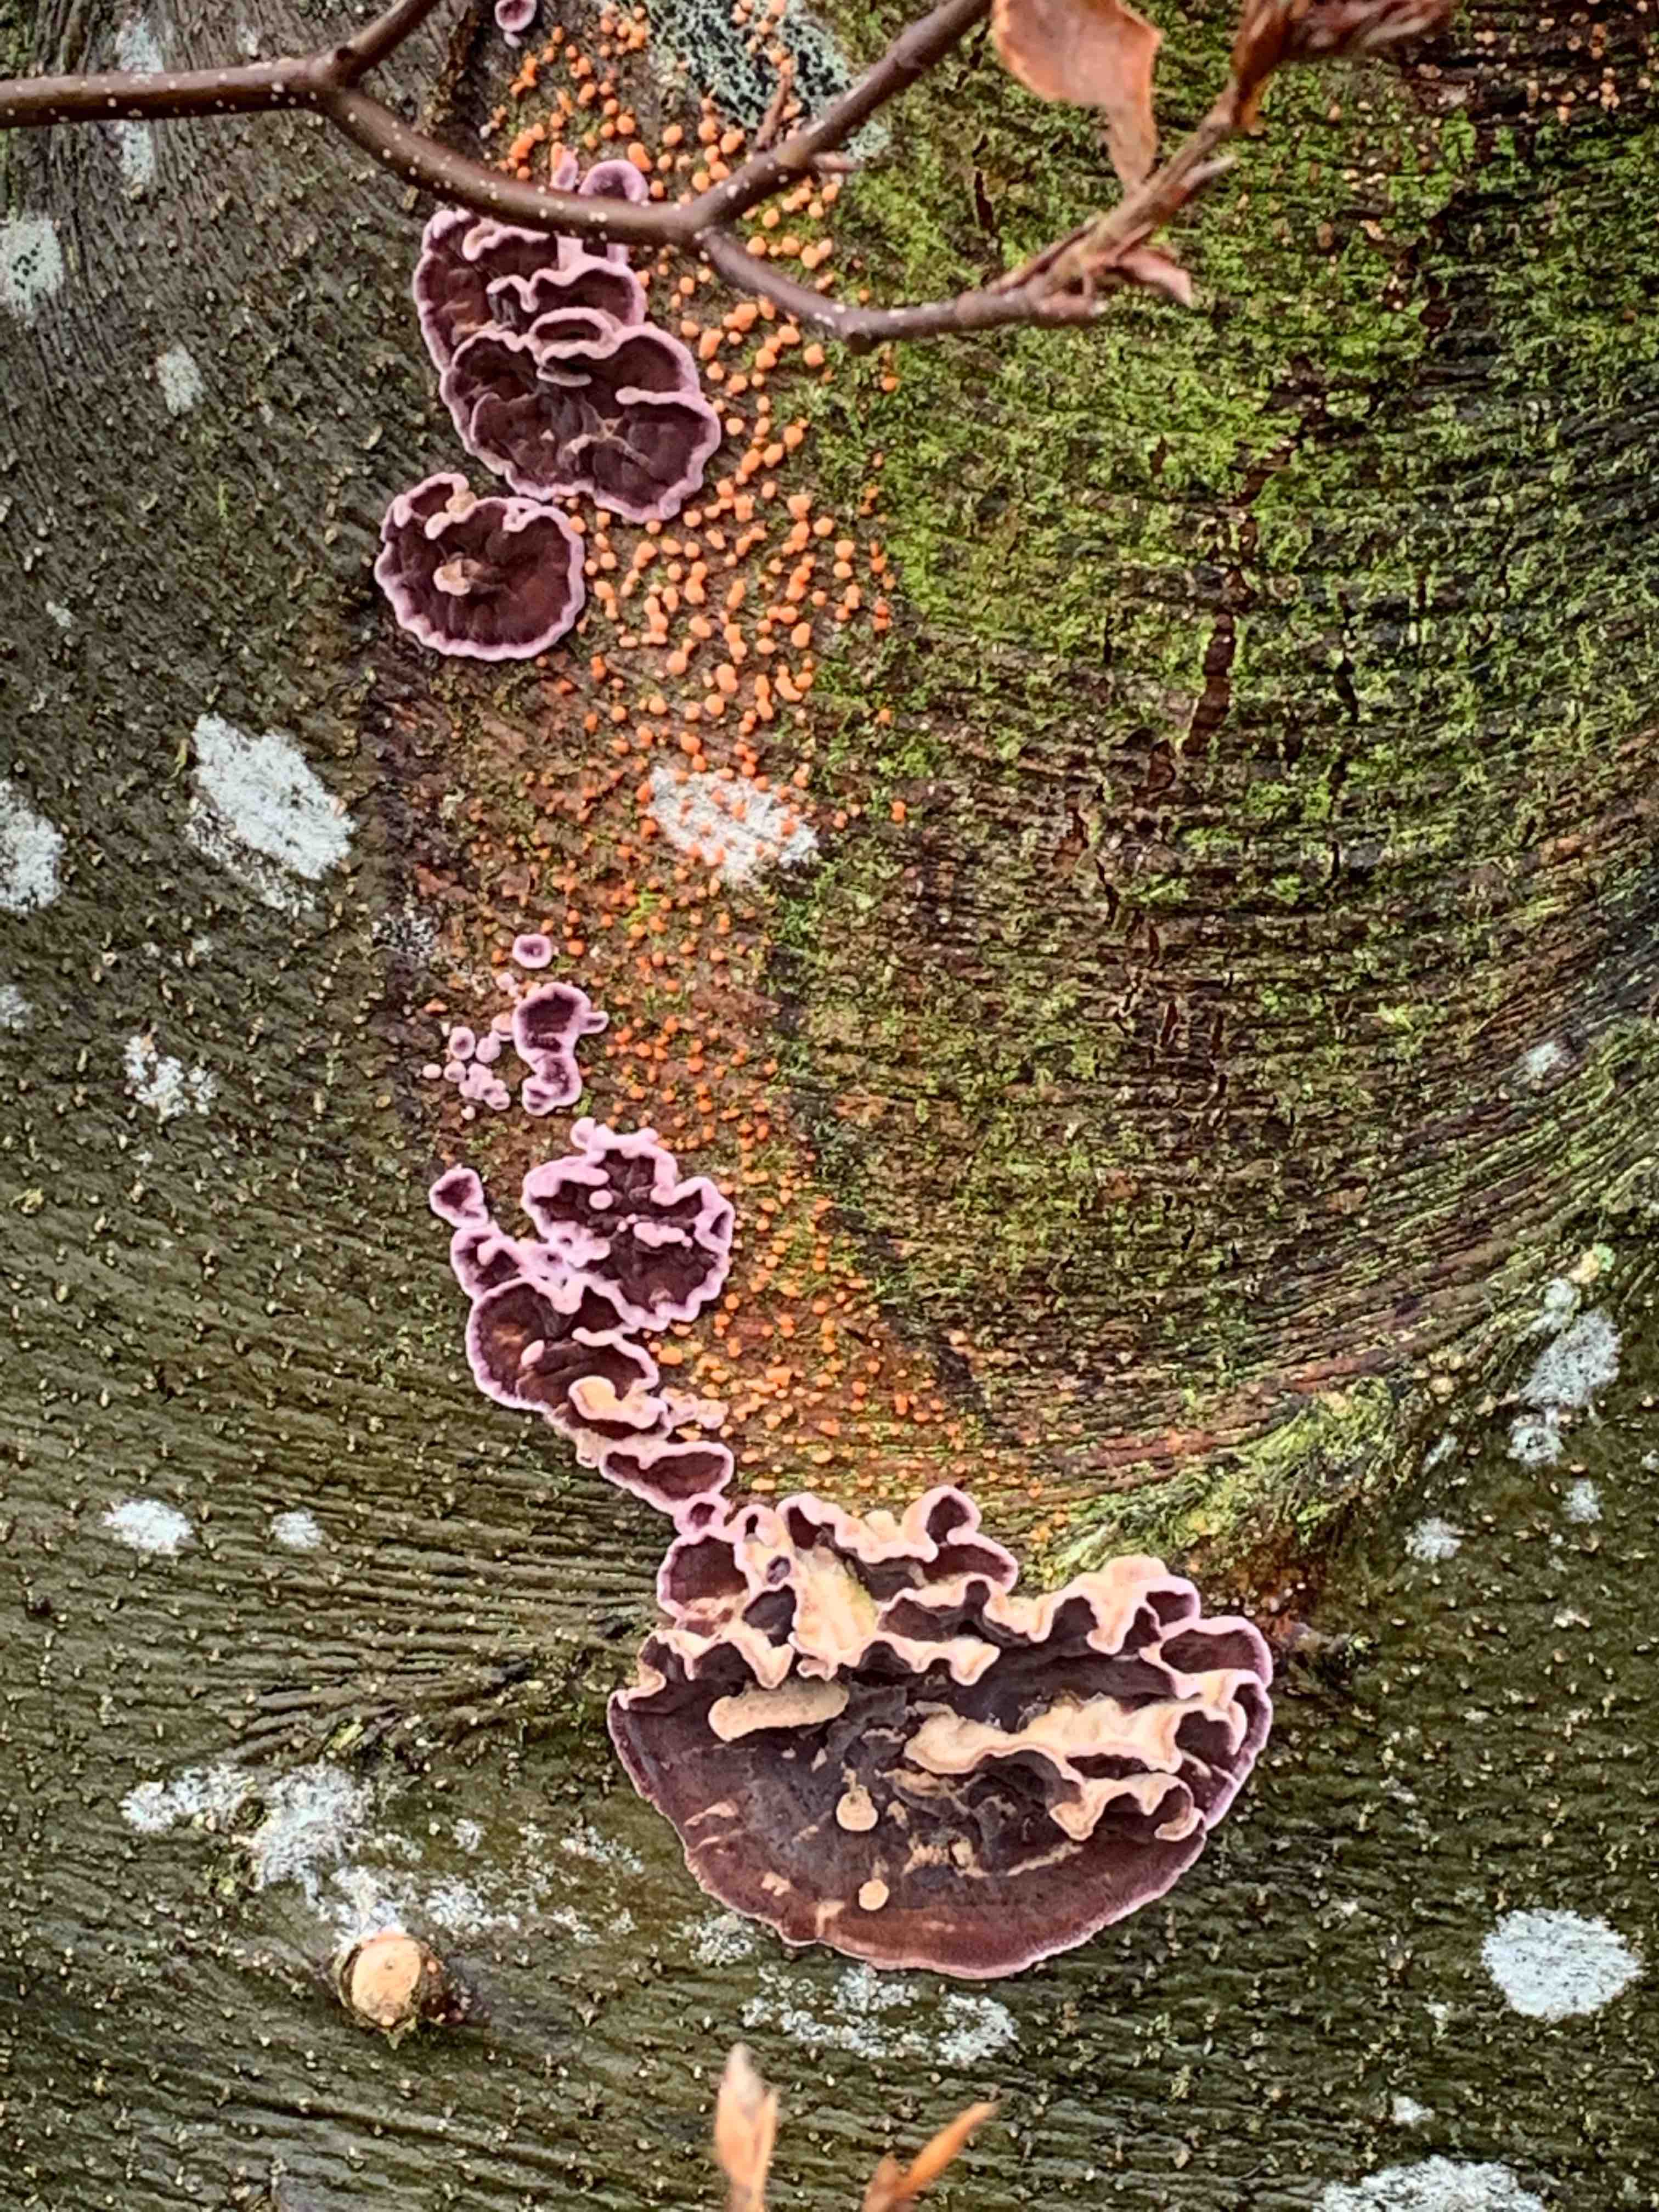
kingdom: Fungi
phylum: Basidiomycota
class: Agaricomycetes
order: Agaricales
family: Cyphellaceae
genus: Chondrostereum
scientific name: Chondrostereum purpureum
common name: purpurlædersvamp
